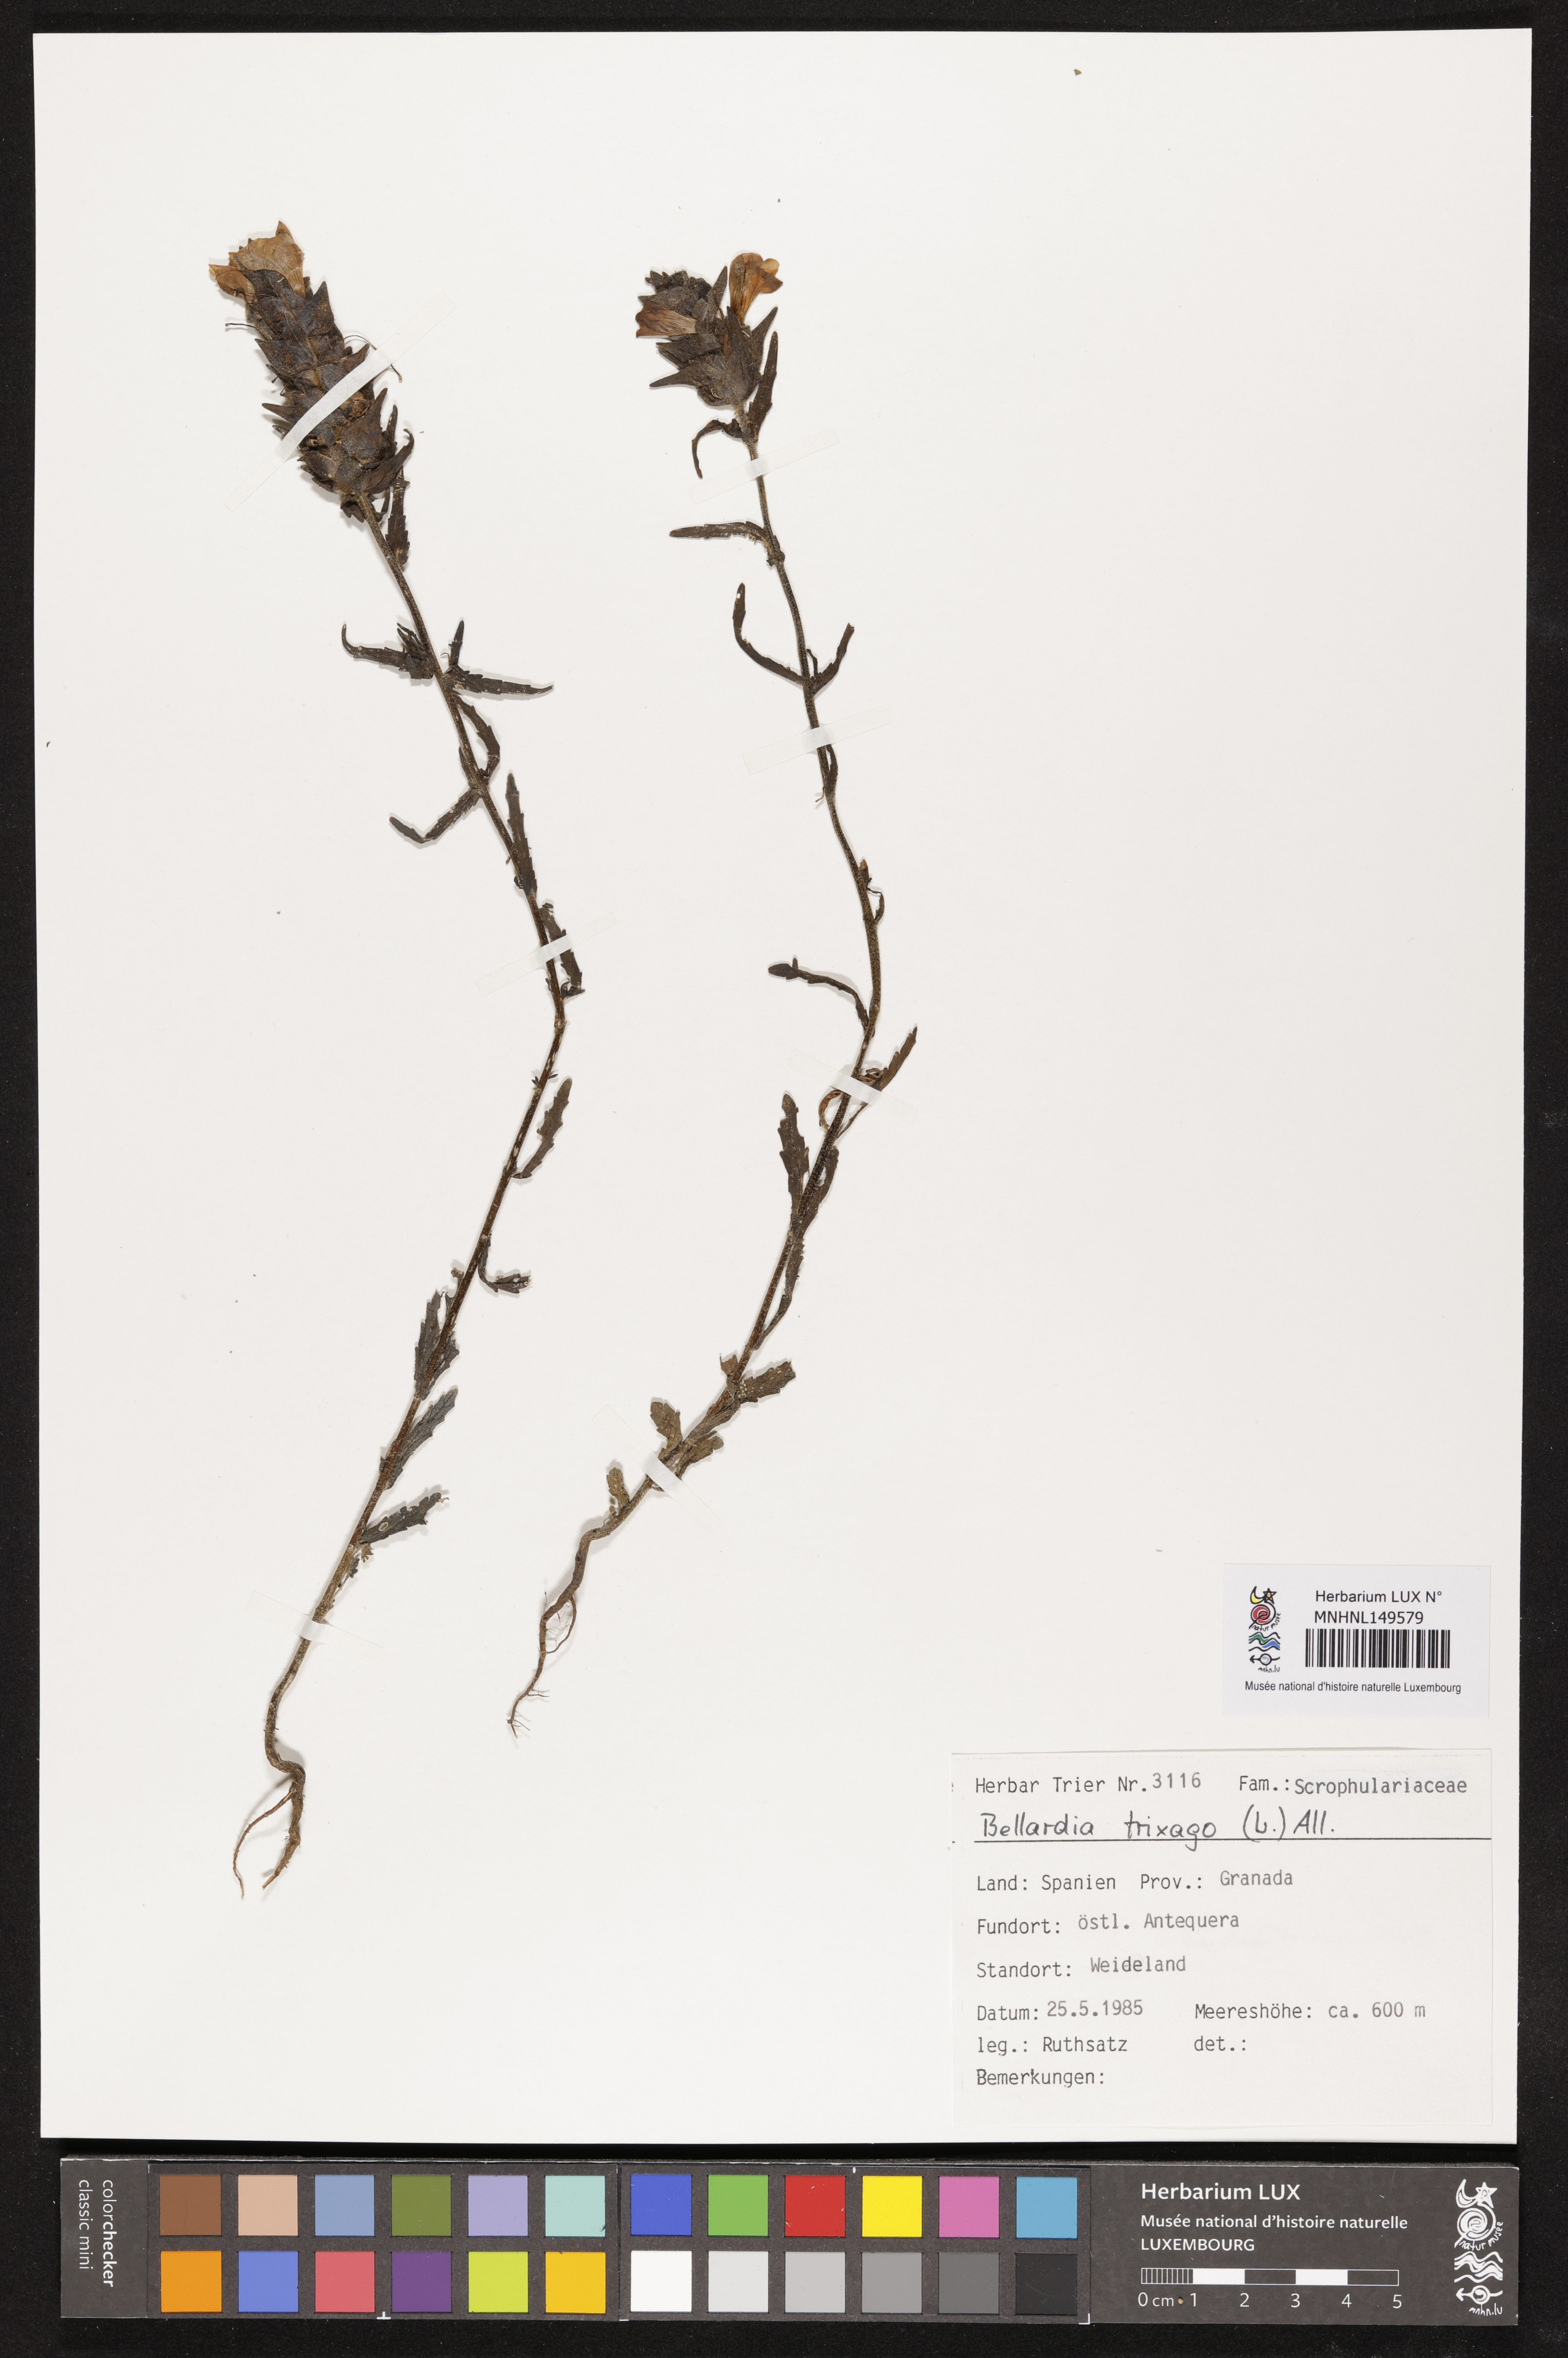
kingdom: Plantae
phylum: Tracheophyta
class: Magnoliopsida
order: Lamiales
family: Orobanchaceae
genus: Bellardia
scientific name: Bellardia trixago
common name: Mediterranean lineseed
